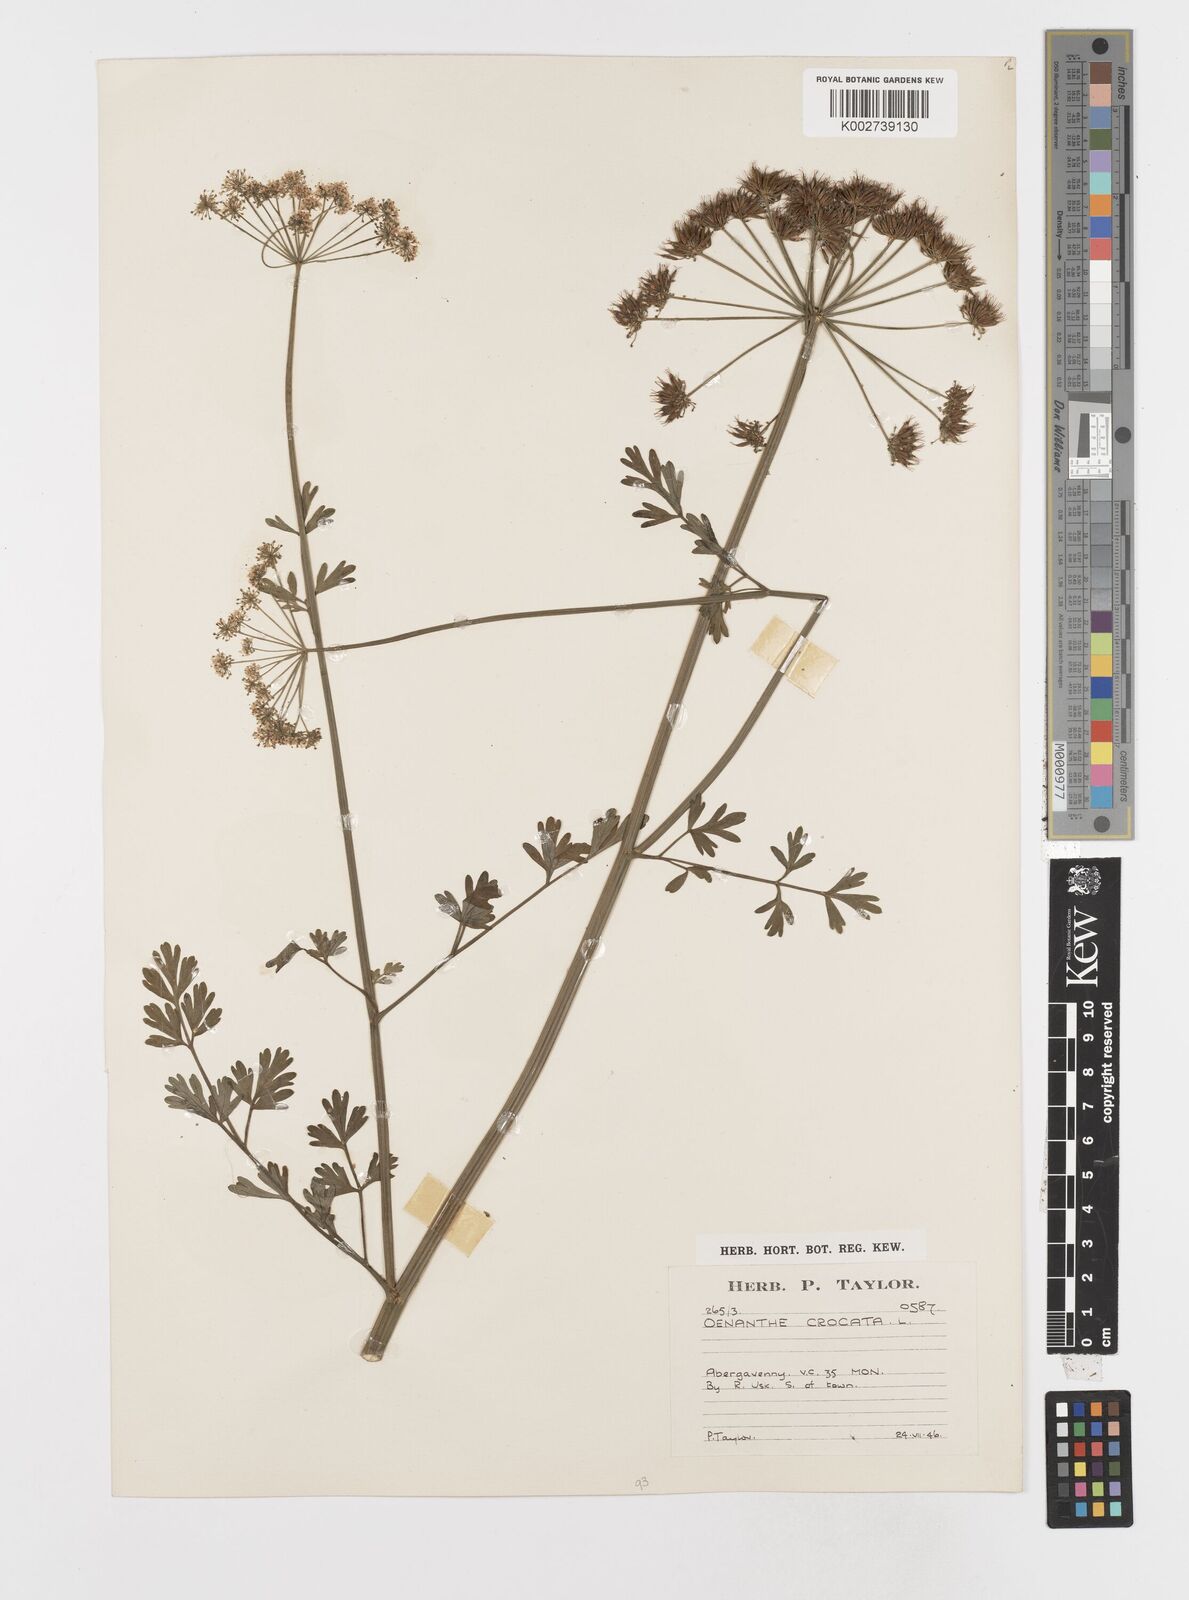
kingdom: Plantae
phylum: Tracheophyta
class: Magnoliopsida
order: Apiales
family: Apiaceae
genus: Oenanthe
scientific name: Oenanthe crocata
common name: Hemlock water-dropwort
